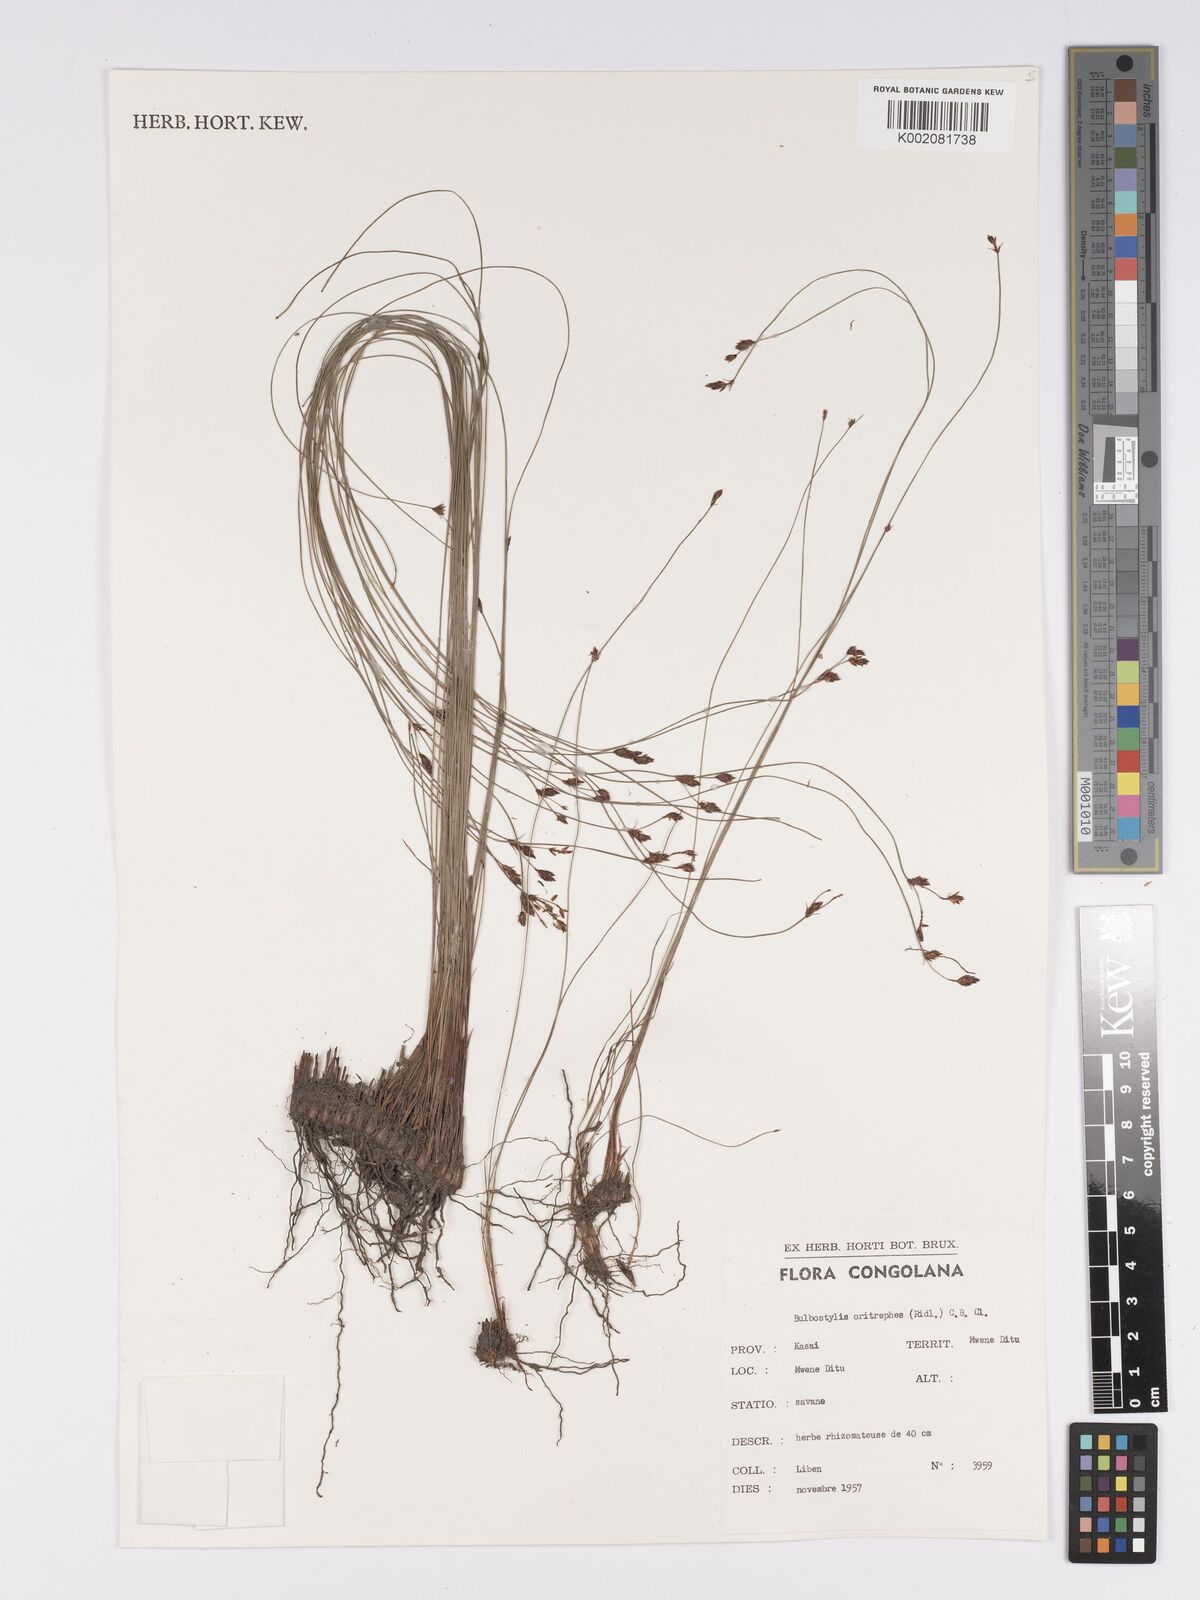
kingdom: Plantae
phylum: Tracheophyta
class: Liliopsida
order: Poales
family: Cyperaceae
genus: Bulbostylis
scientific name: Bulbostylis oritrephes
